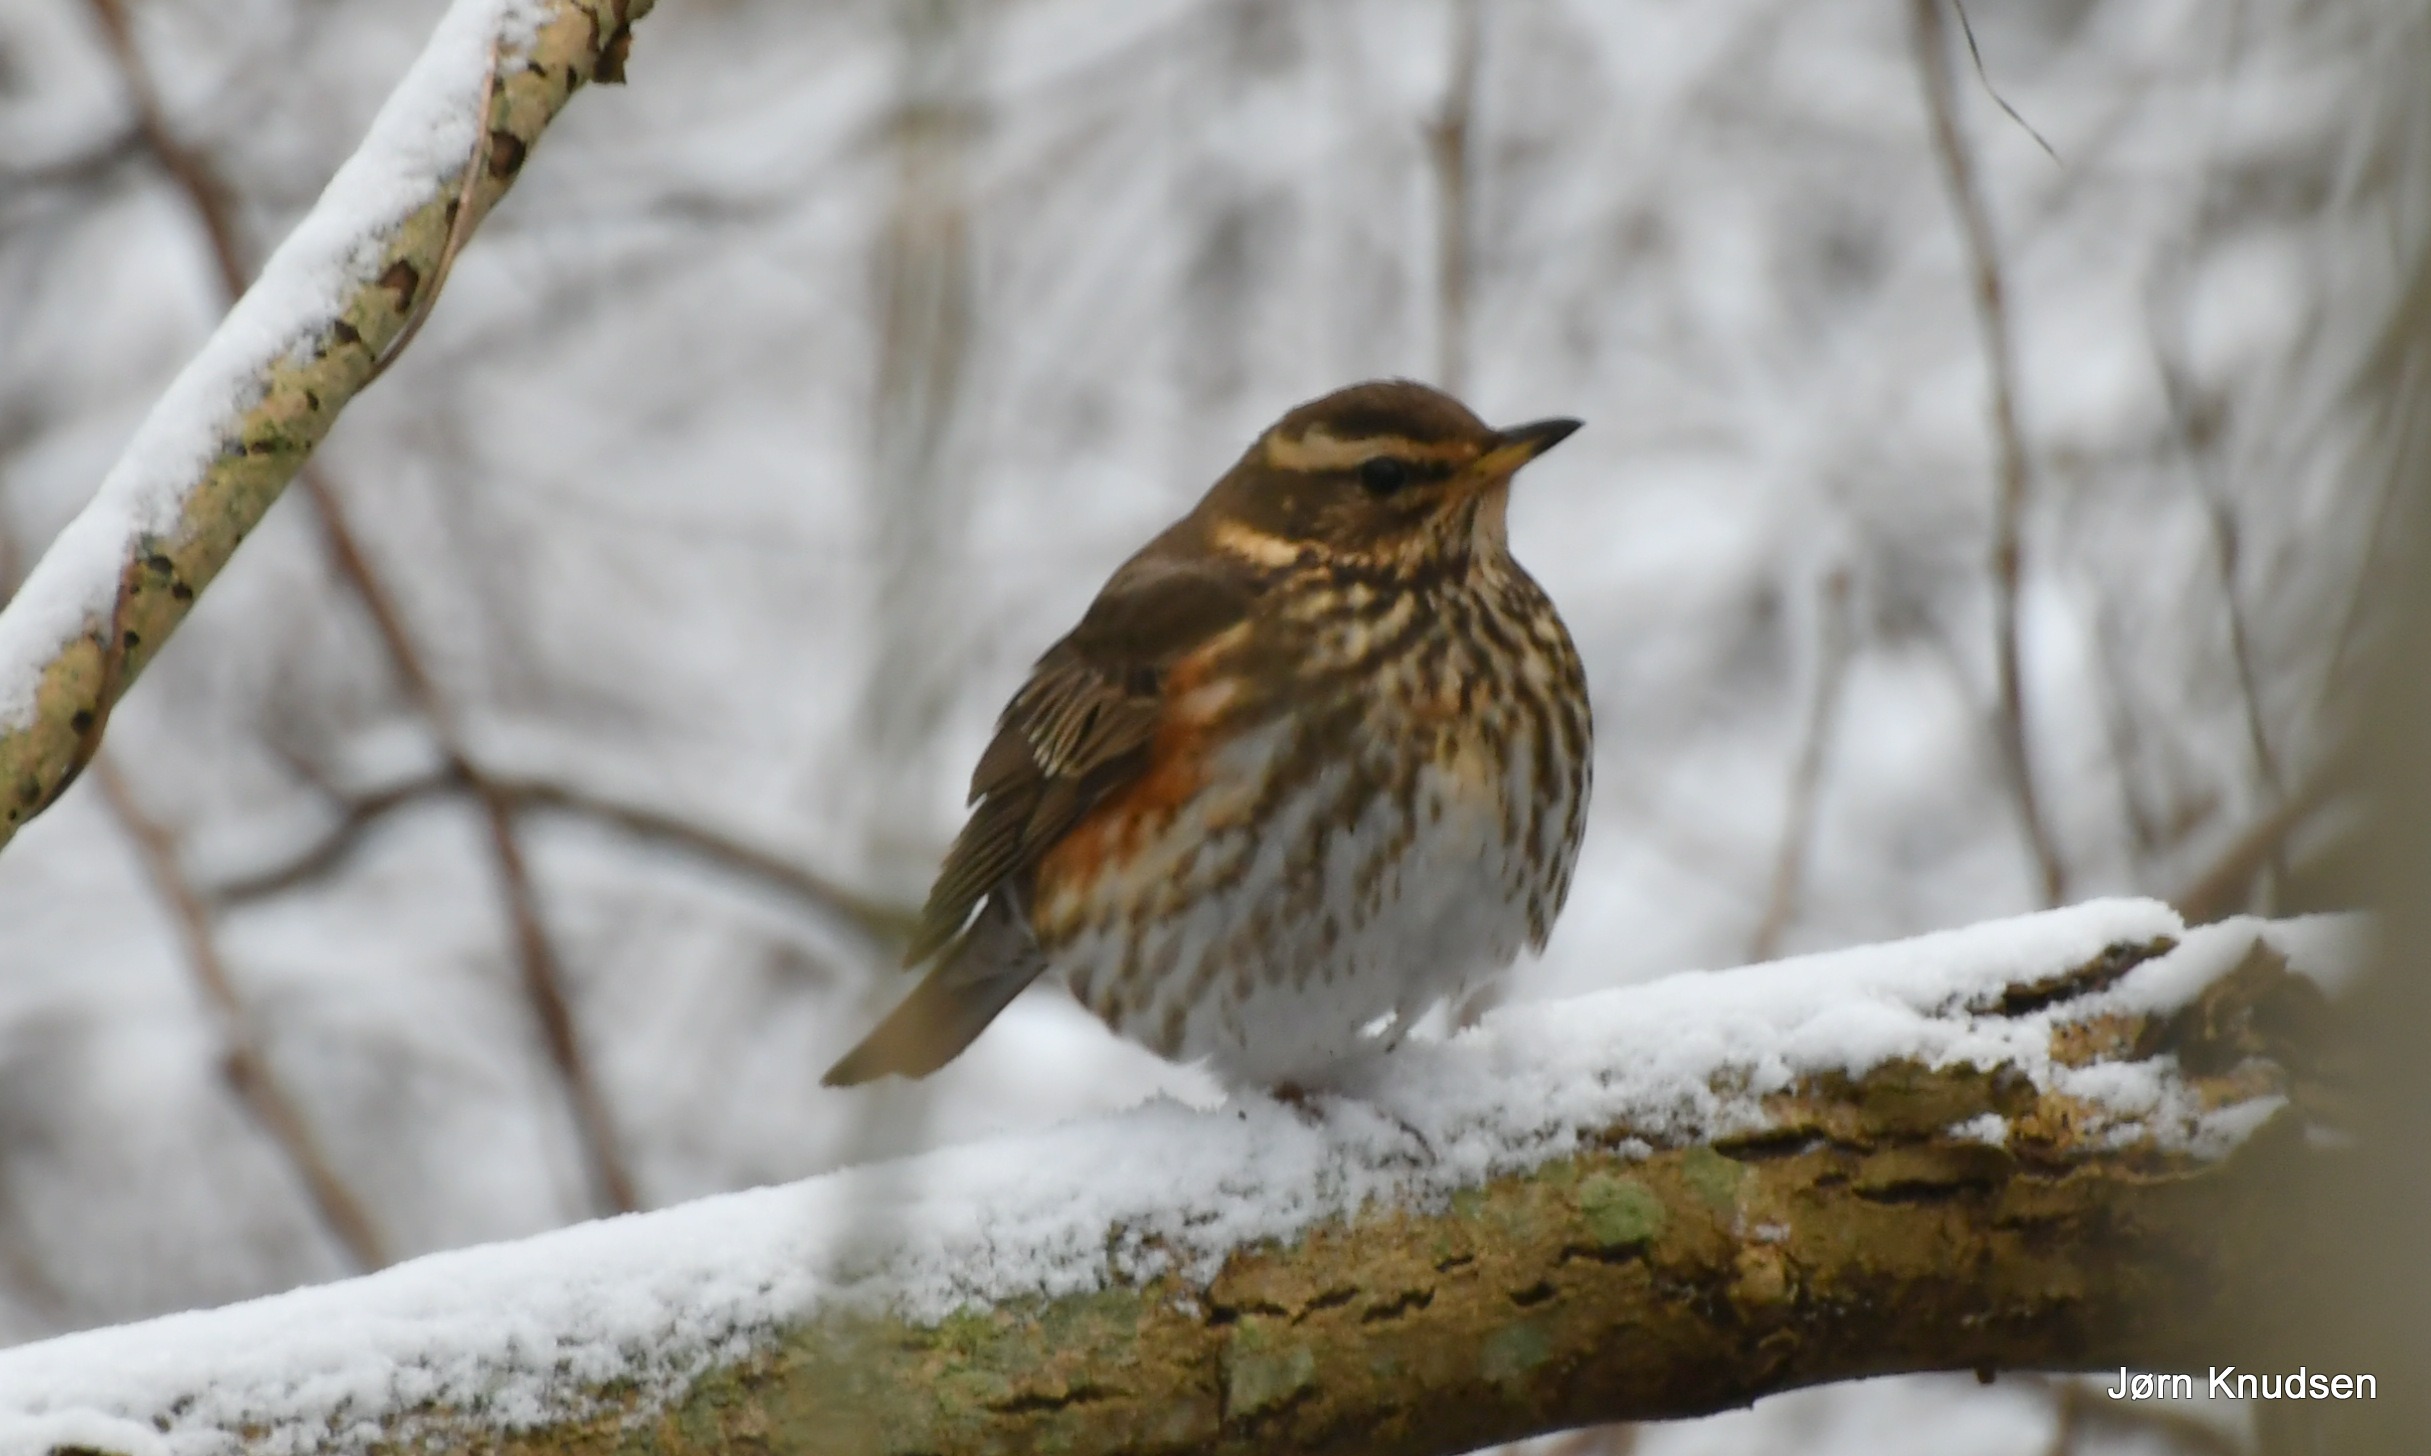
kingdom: Animalia
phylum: Chordata
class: Aves
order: Passeriformes
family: Turdidae
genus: Turdus
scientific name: Turdus iliacus
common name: Vindrossel
